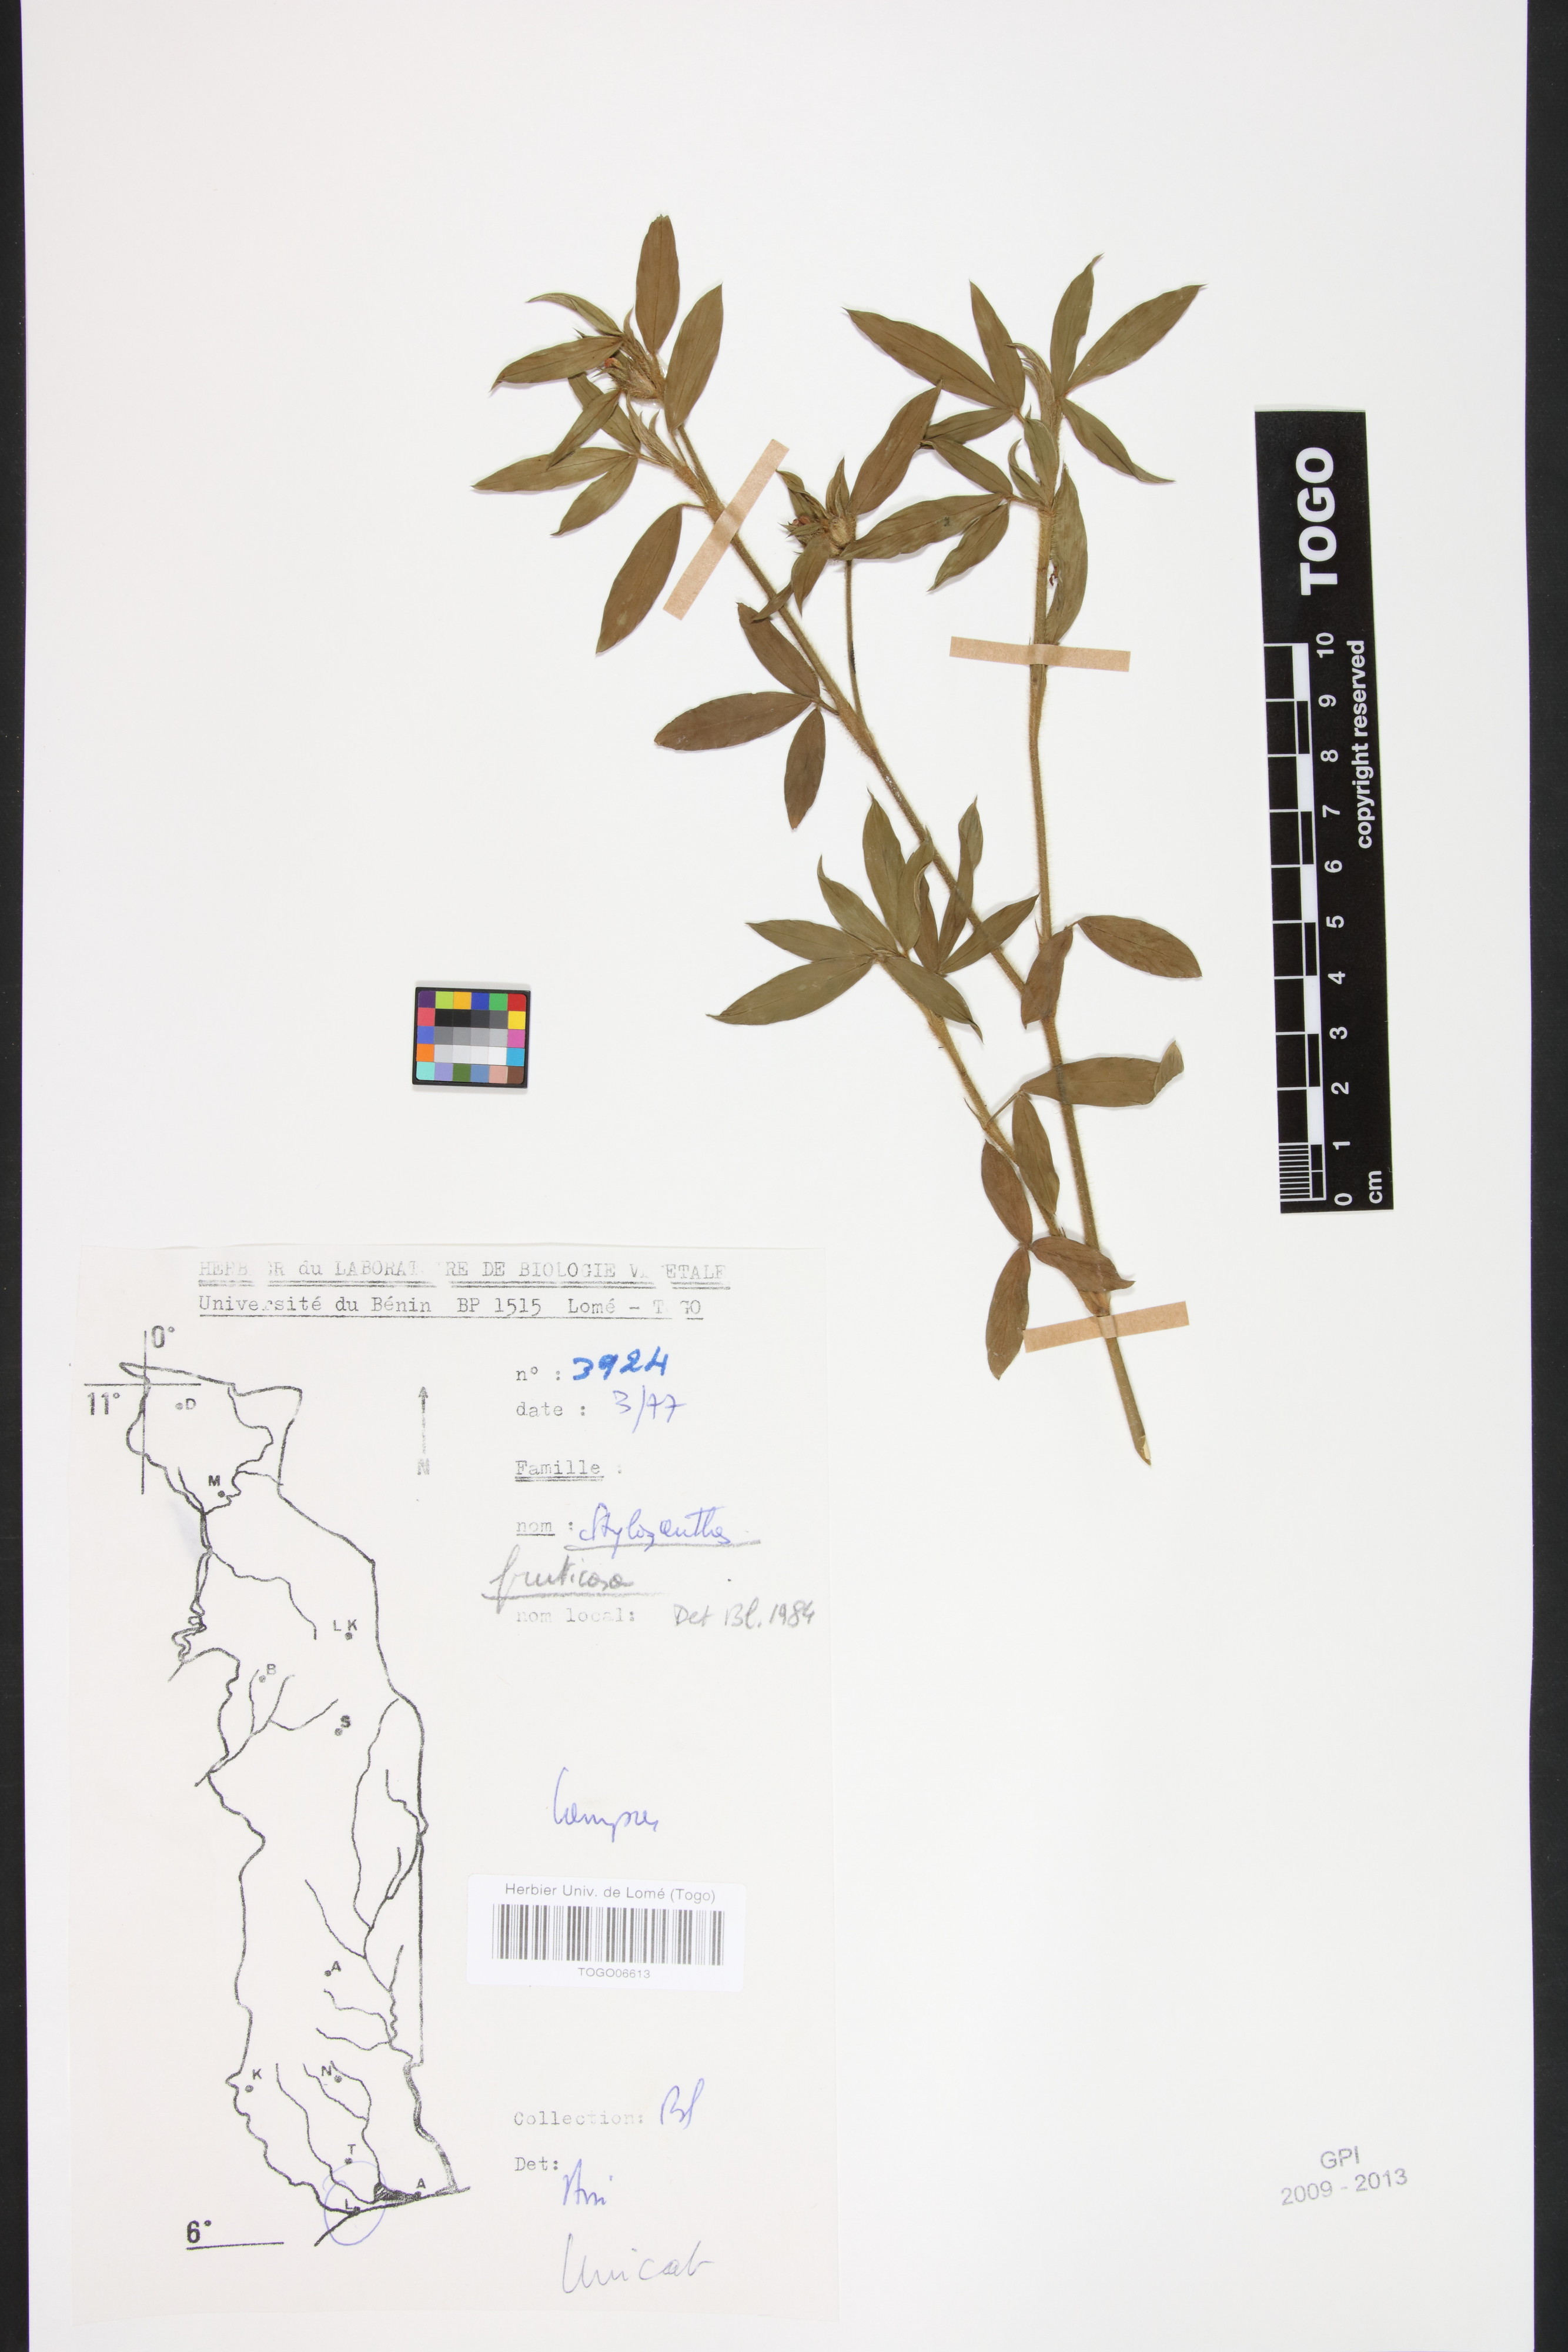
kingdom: Plantae
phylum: Tracheophyta
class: Magnoliopsida
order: Fabales
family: Fabaceae
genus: Stylosanthes
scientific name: Stylosanthes fruticosa
